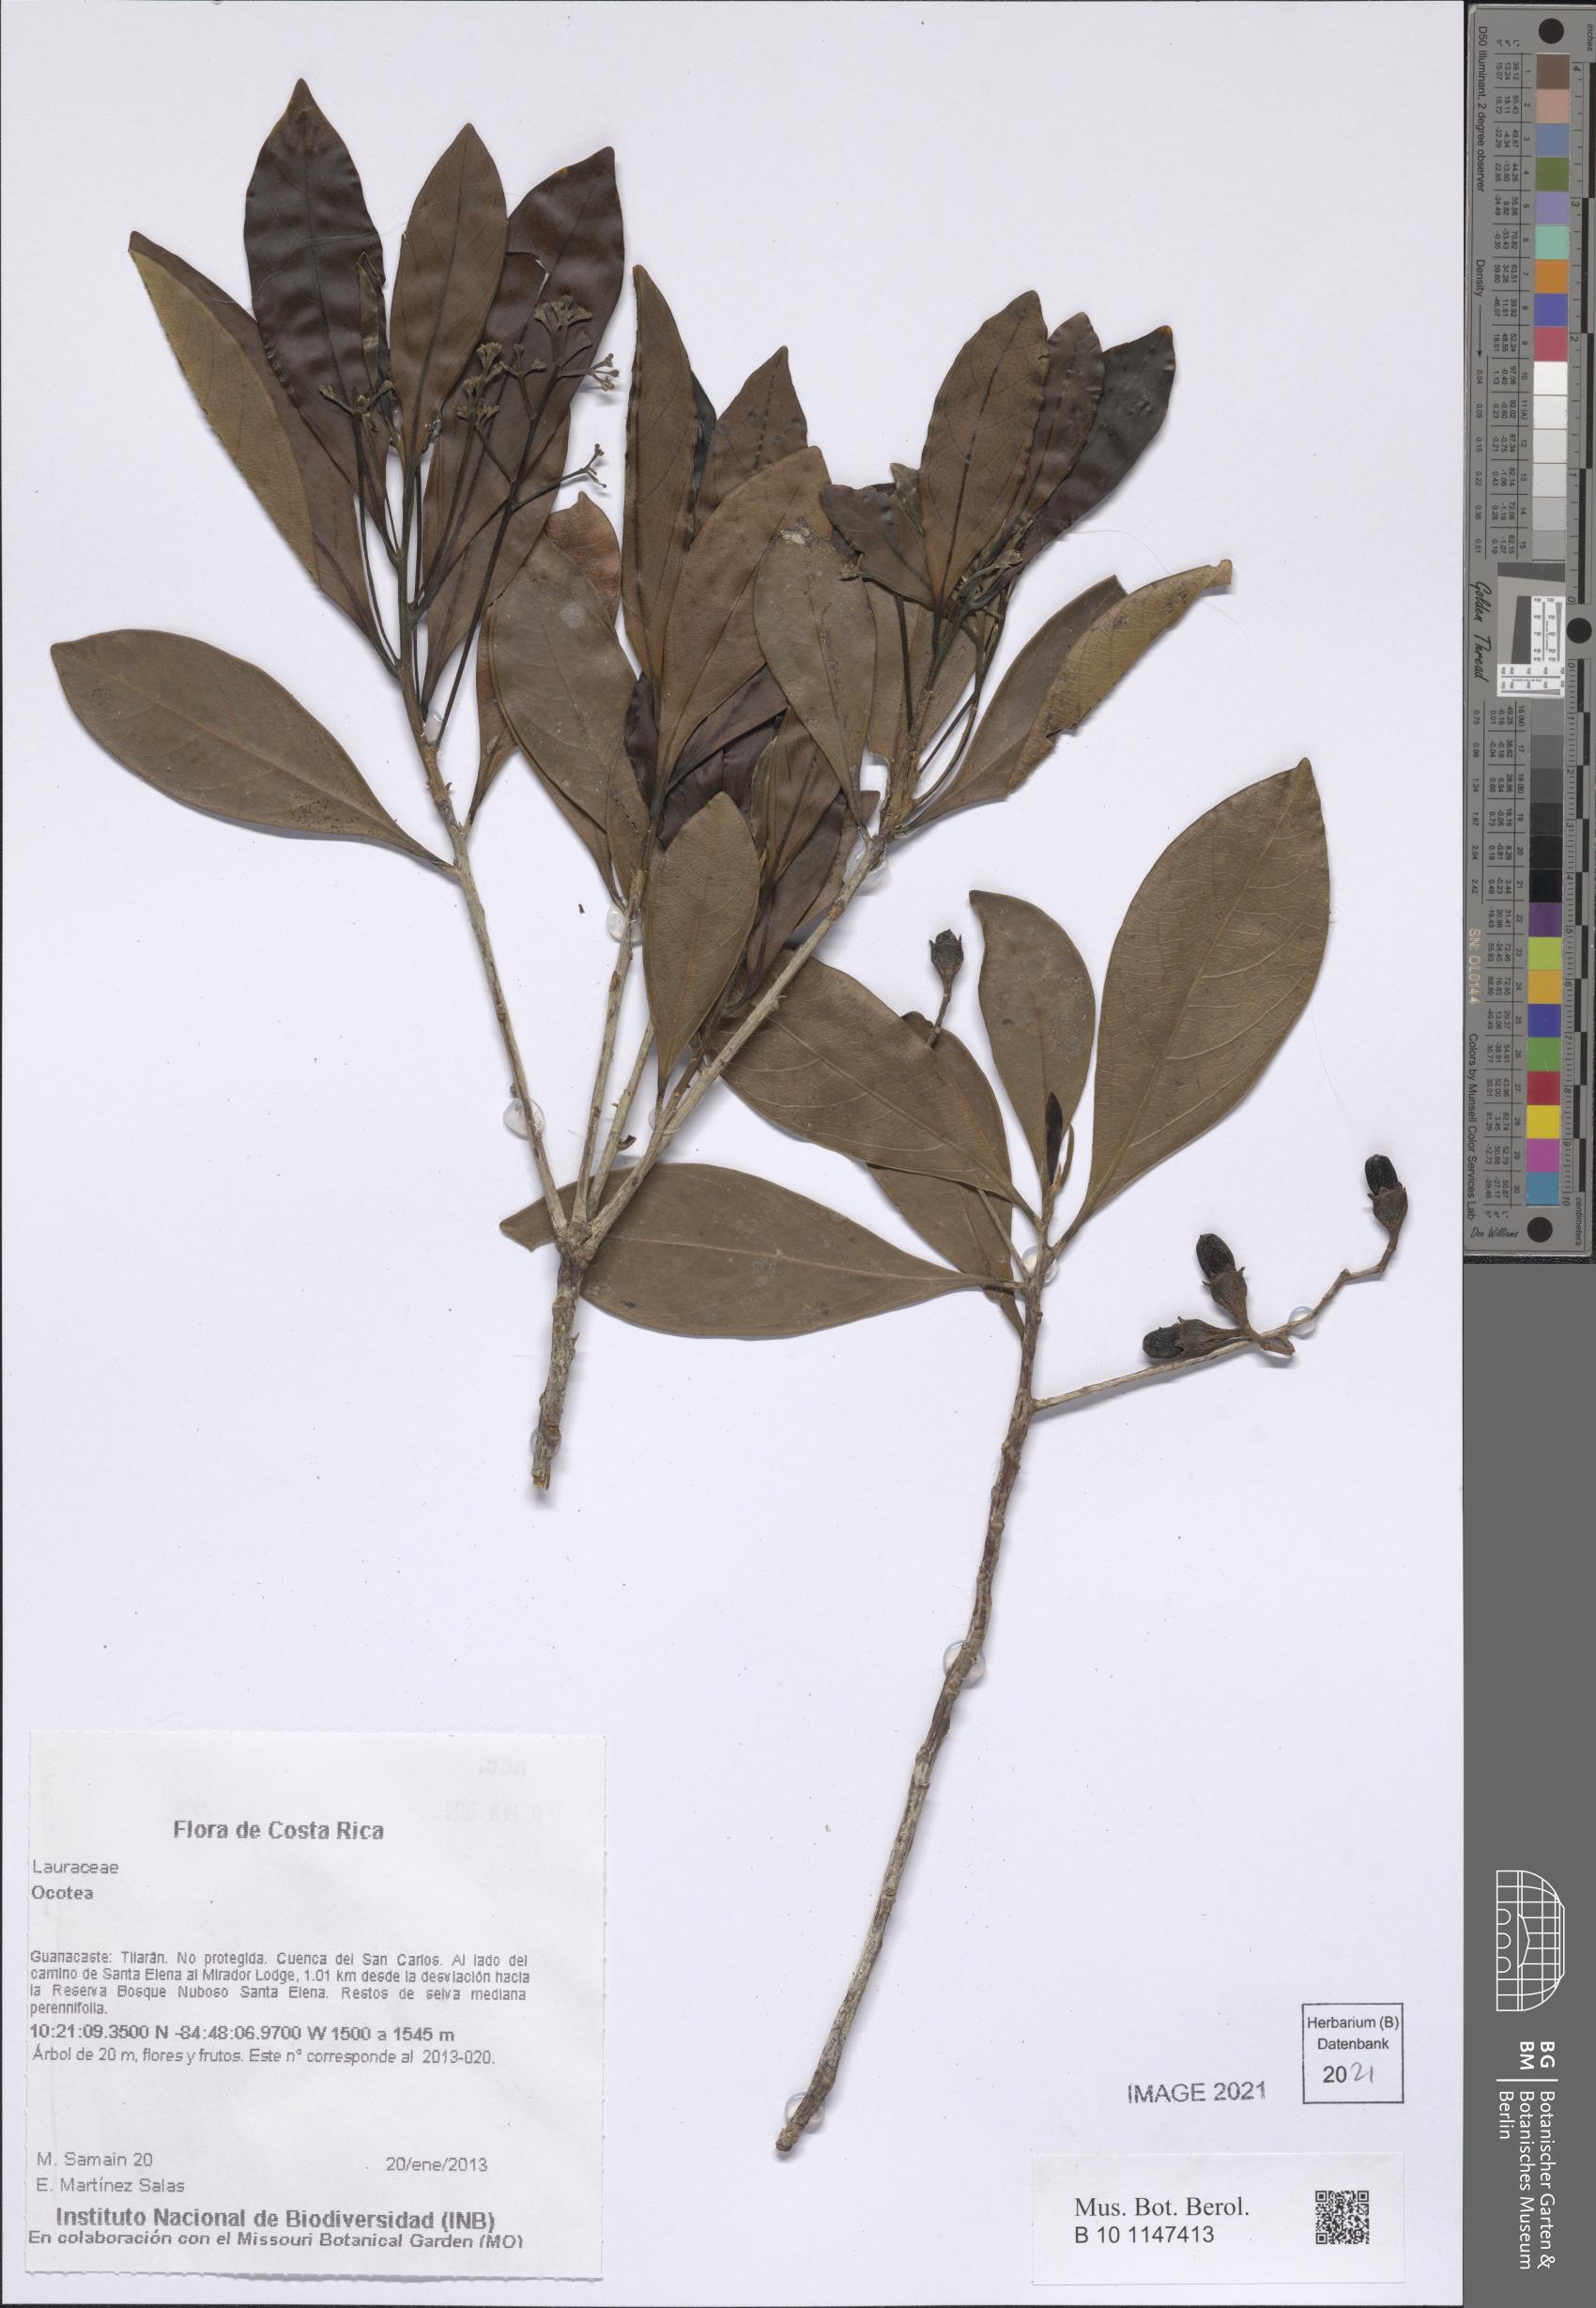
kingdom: Plantae
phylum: Tracheophyta
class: Magnoliopsida
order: Laurales
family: Lauraceae
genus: Ocotea
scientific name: Ocotea
